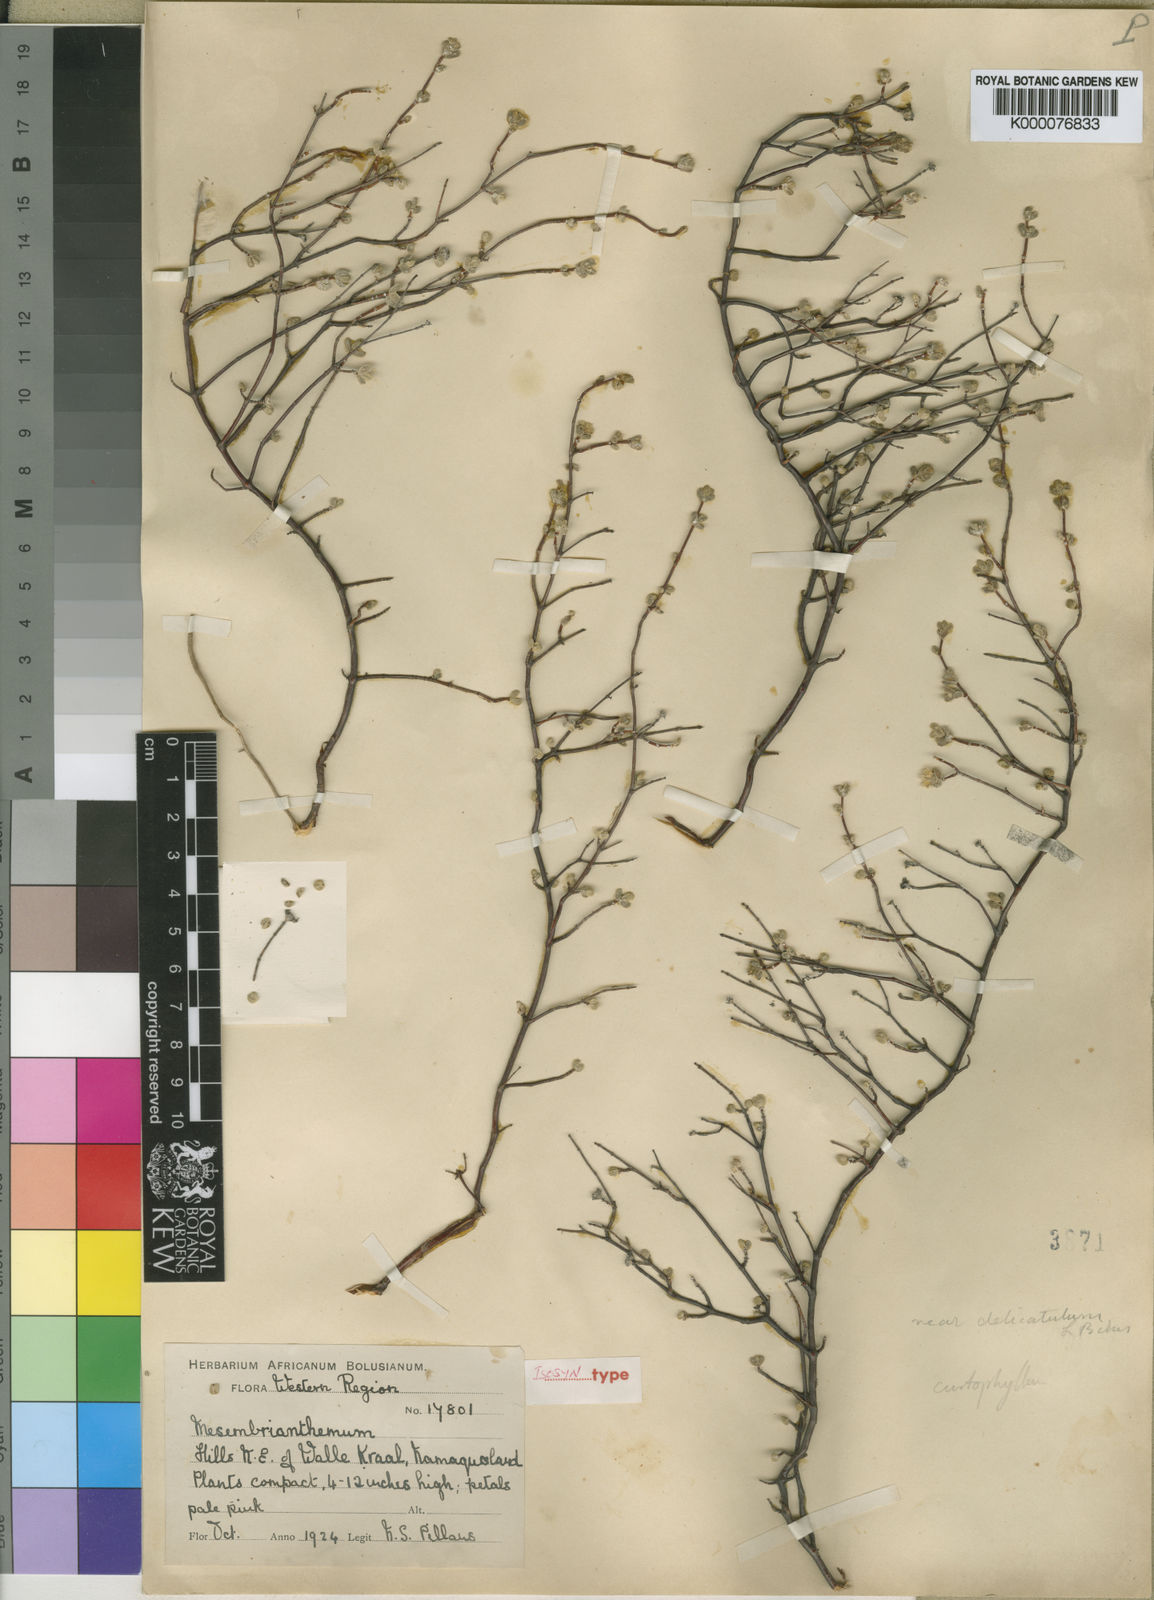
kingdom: Plantae
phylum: Tracheophyta
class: Magnoliopsida
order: Caryophyllales
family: Aizoaceae
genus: Drosanthemum
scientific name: Drosanthemum curtophyllum
